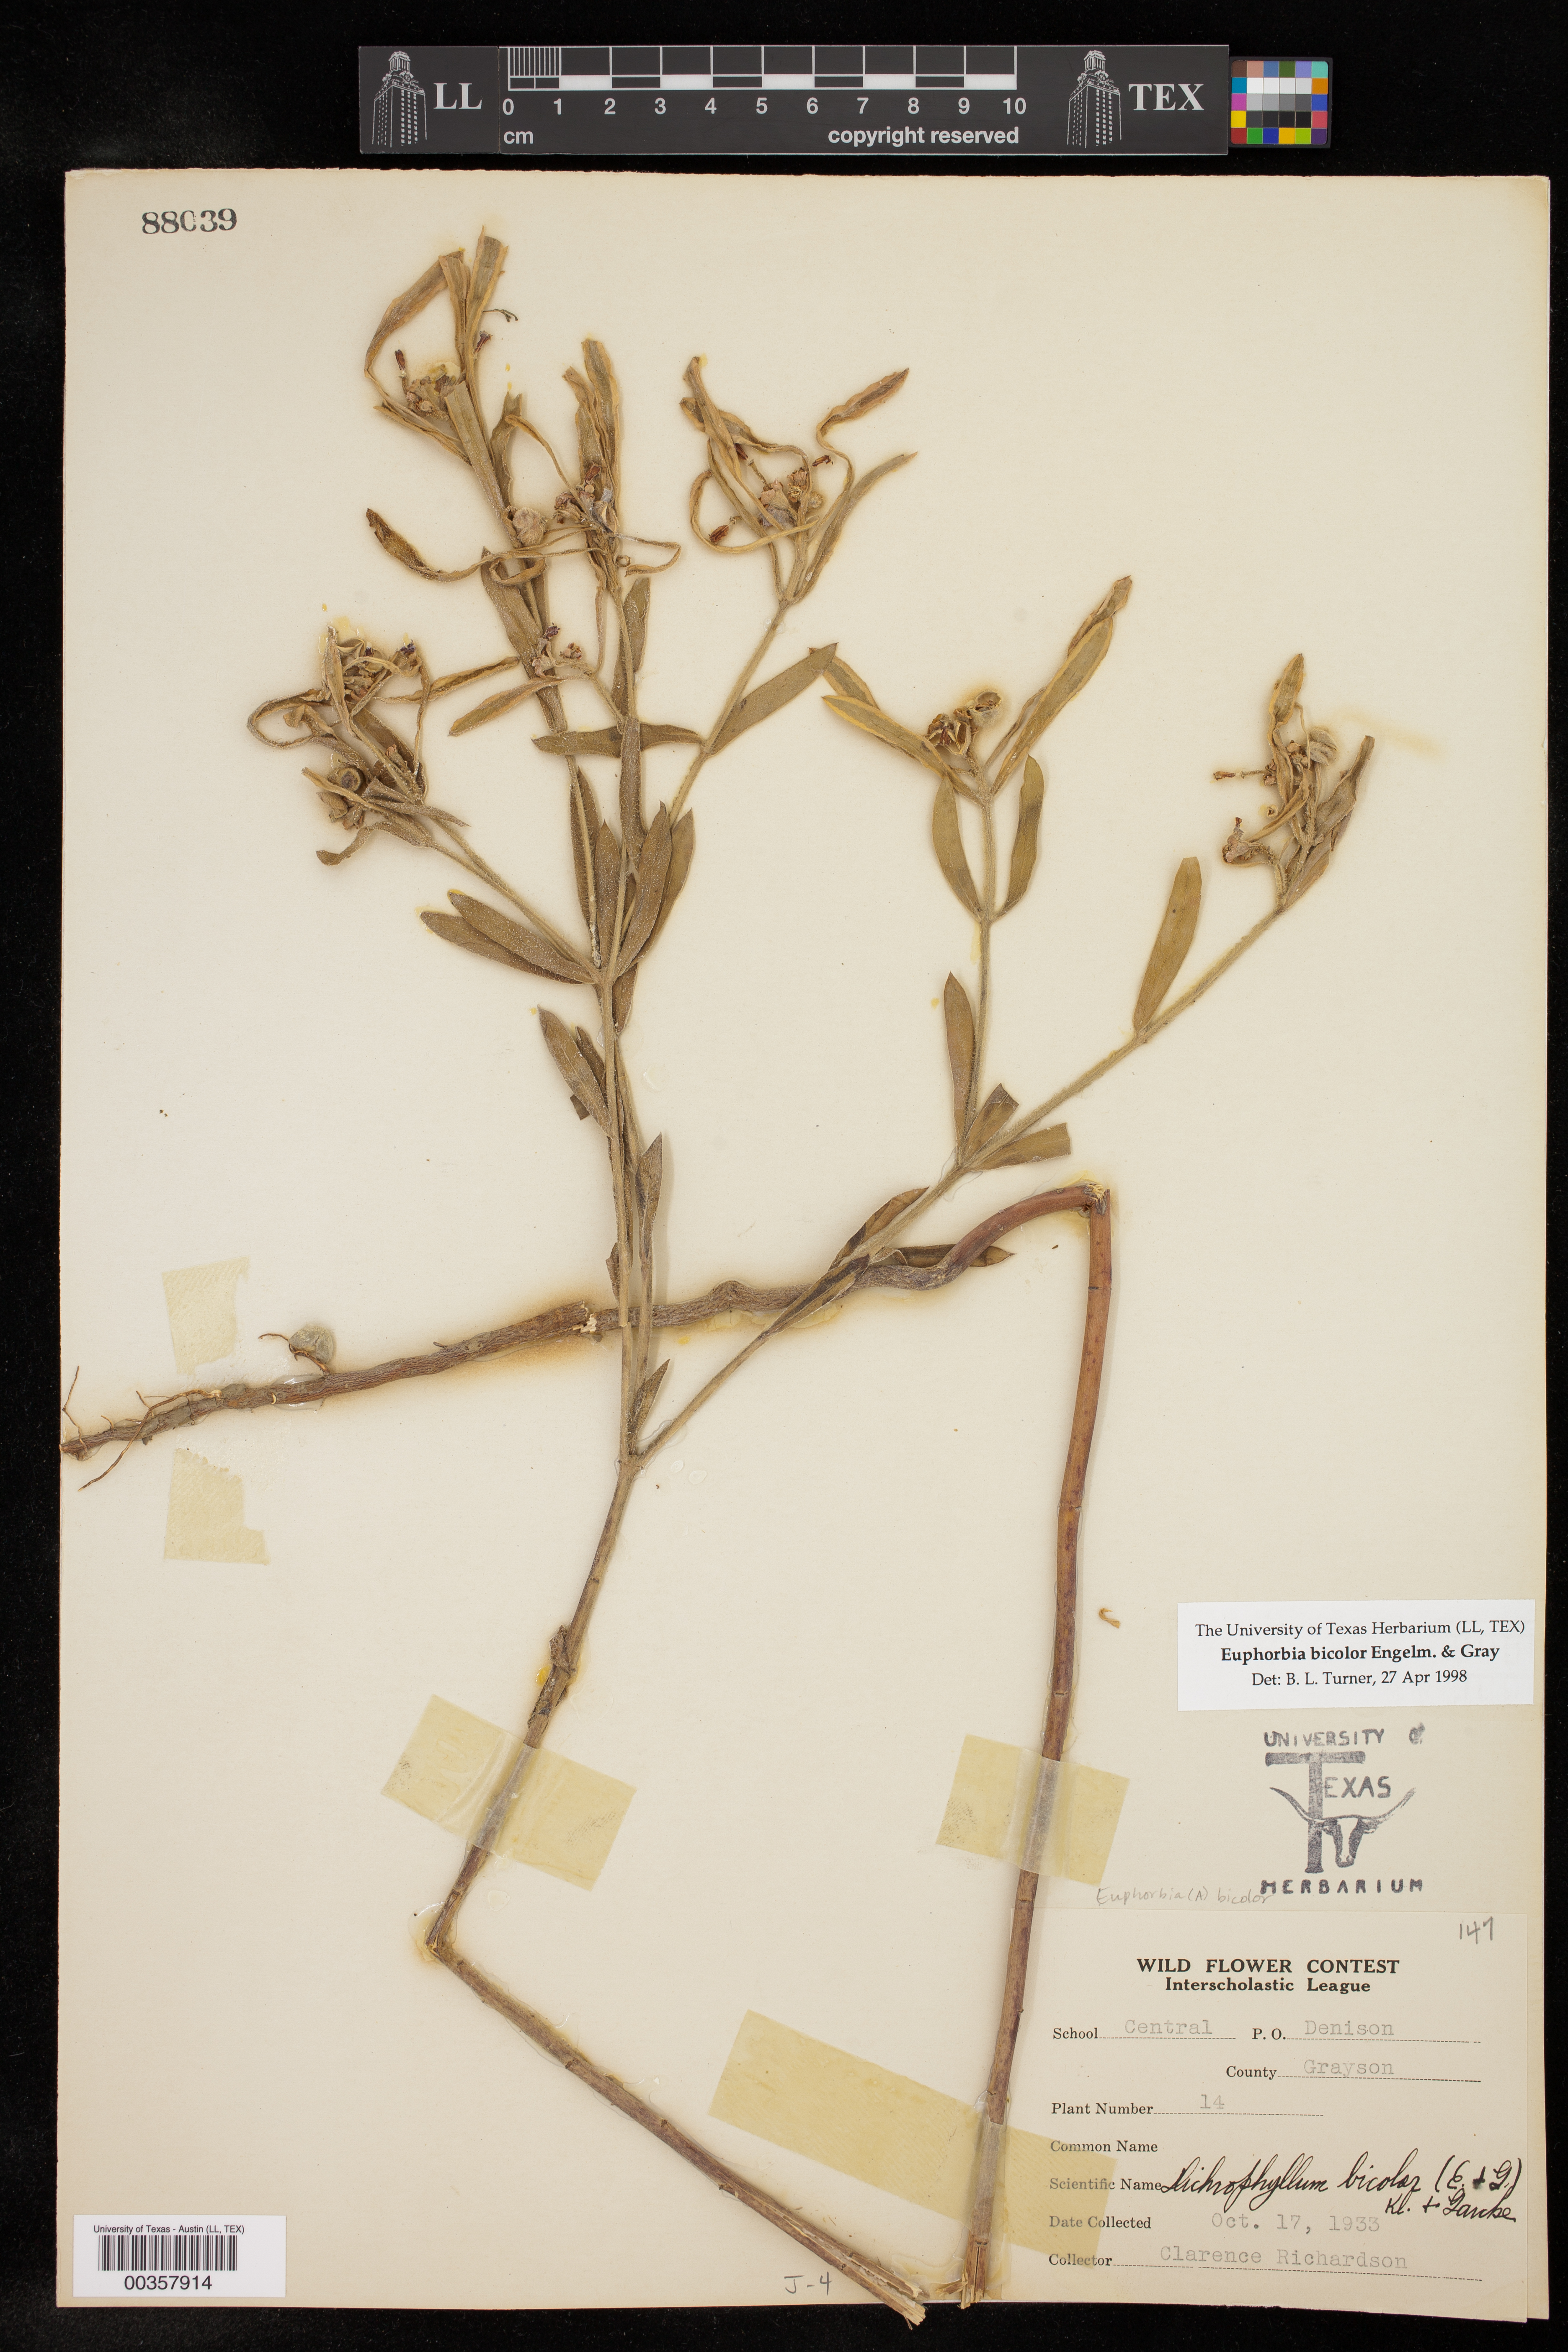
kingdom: Plantae
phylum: Tracheophyta
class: Magnoliopsida
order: Malpighiales
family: Euphorbiaceae
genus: Euphorbia
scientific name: Euphorbia bicolor
